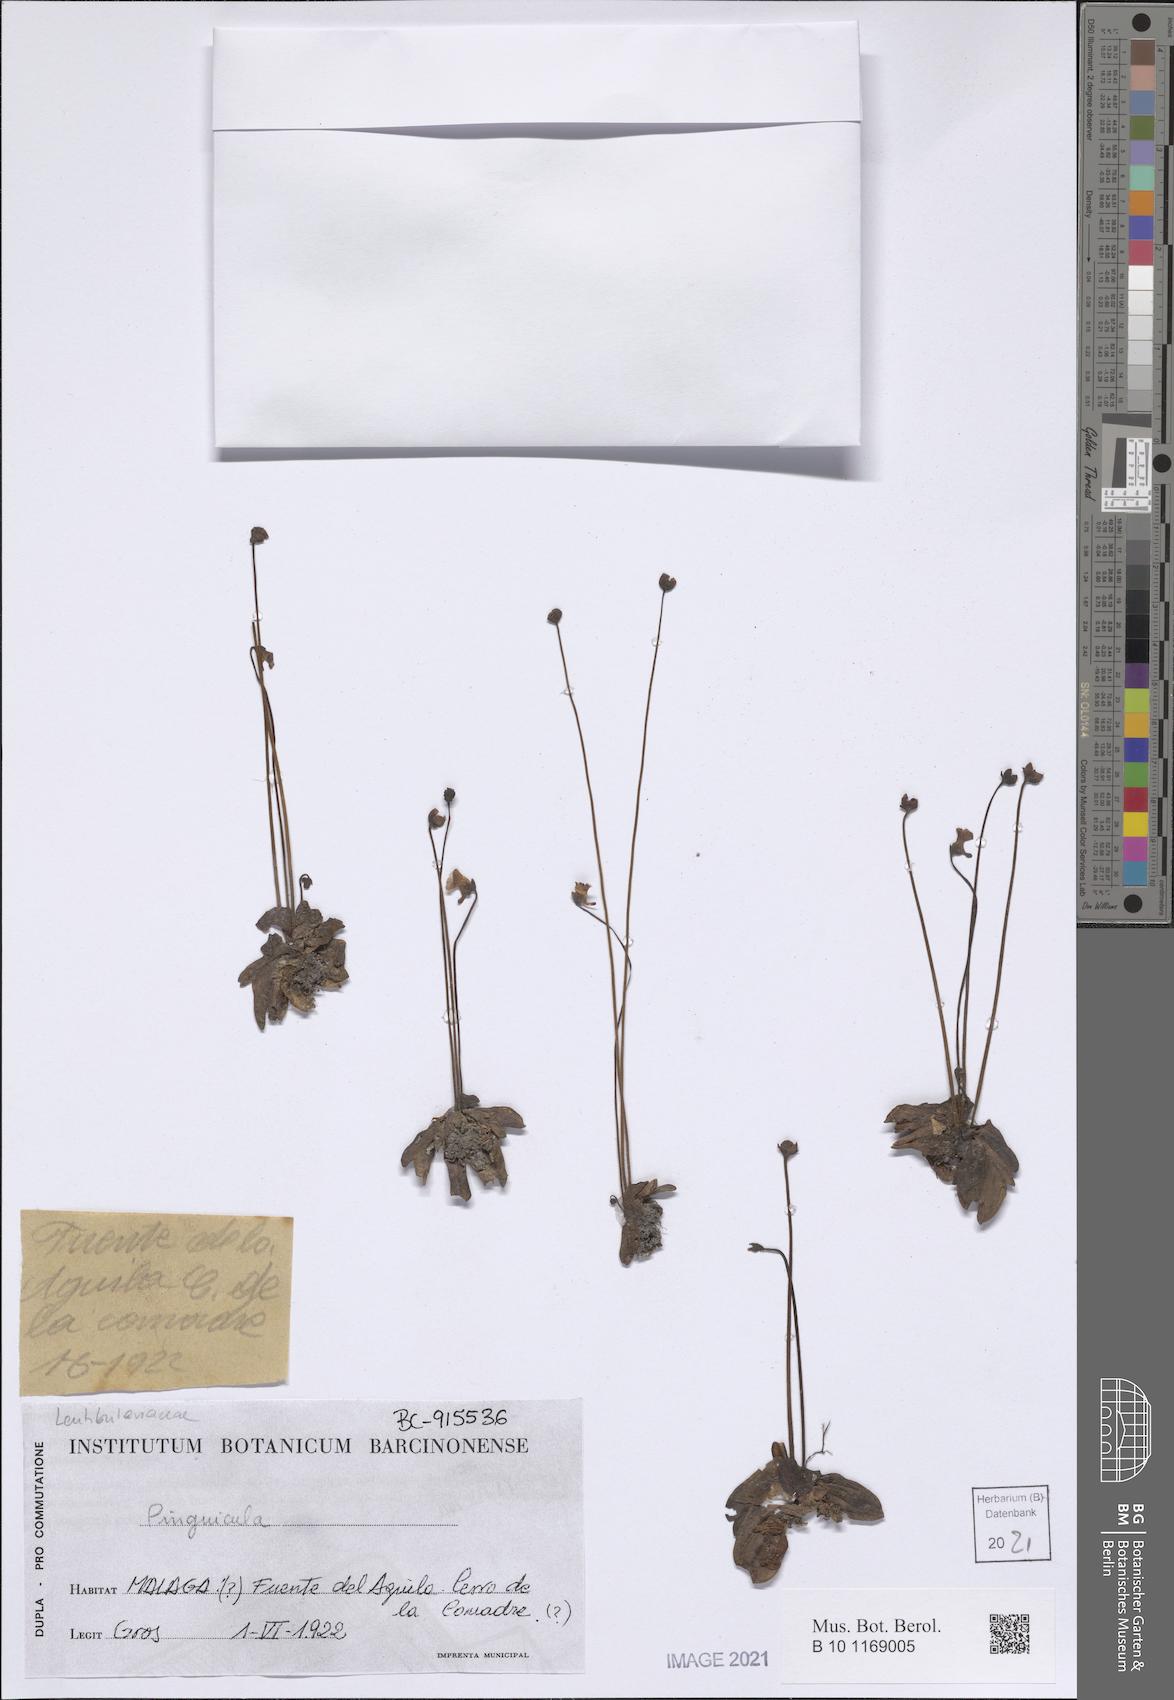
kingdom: Plantae
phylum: Tracheophyta
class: Magnoliopsida
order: Lamiales
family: Lentibulariaceae
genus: Pinguicula
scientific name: Pinguicula
